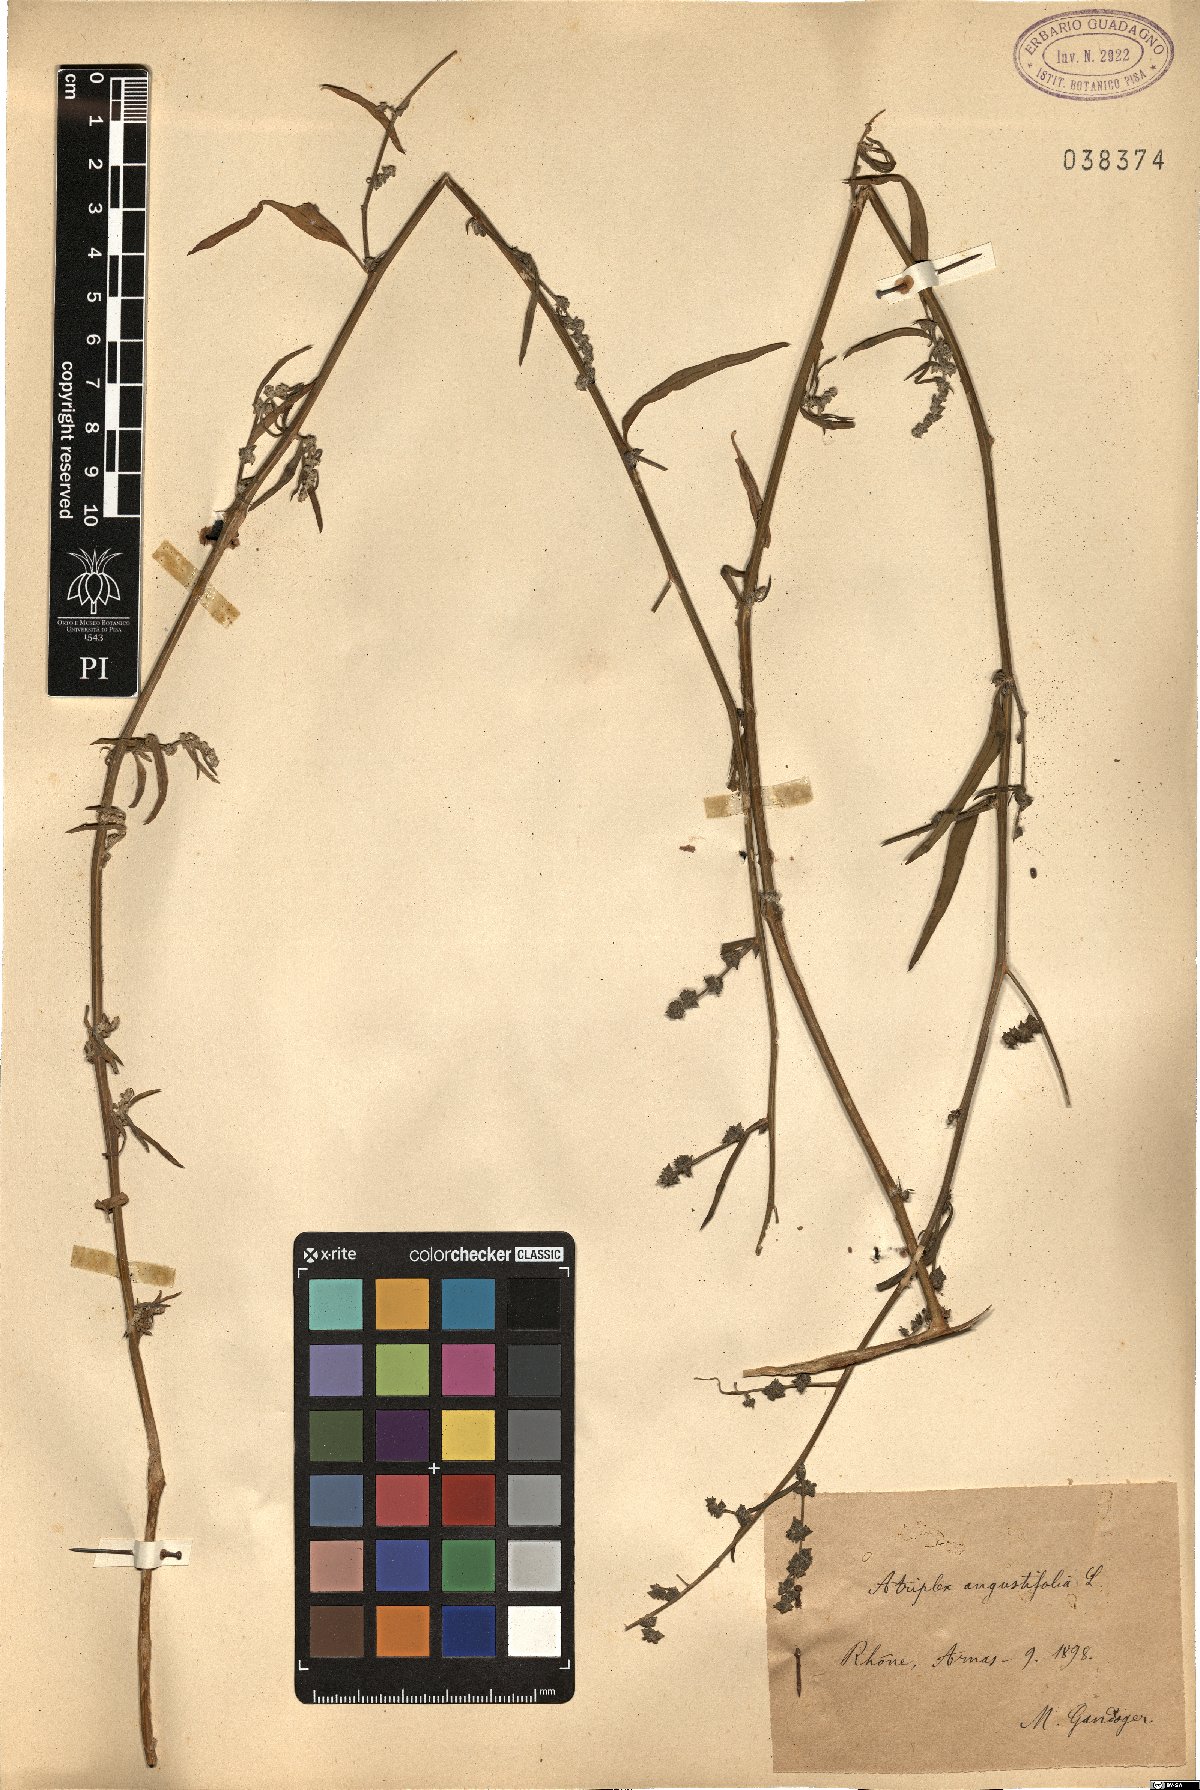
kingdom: Plantae
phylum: Tracheophyta
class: Magnoliopsida
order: Caryophyllales
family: Amaranthaceae
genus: Atriplex
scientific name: Atriplex patula
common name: Common orache
